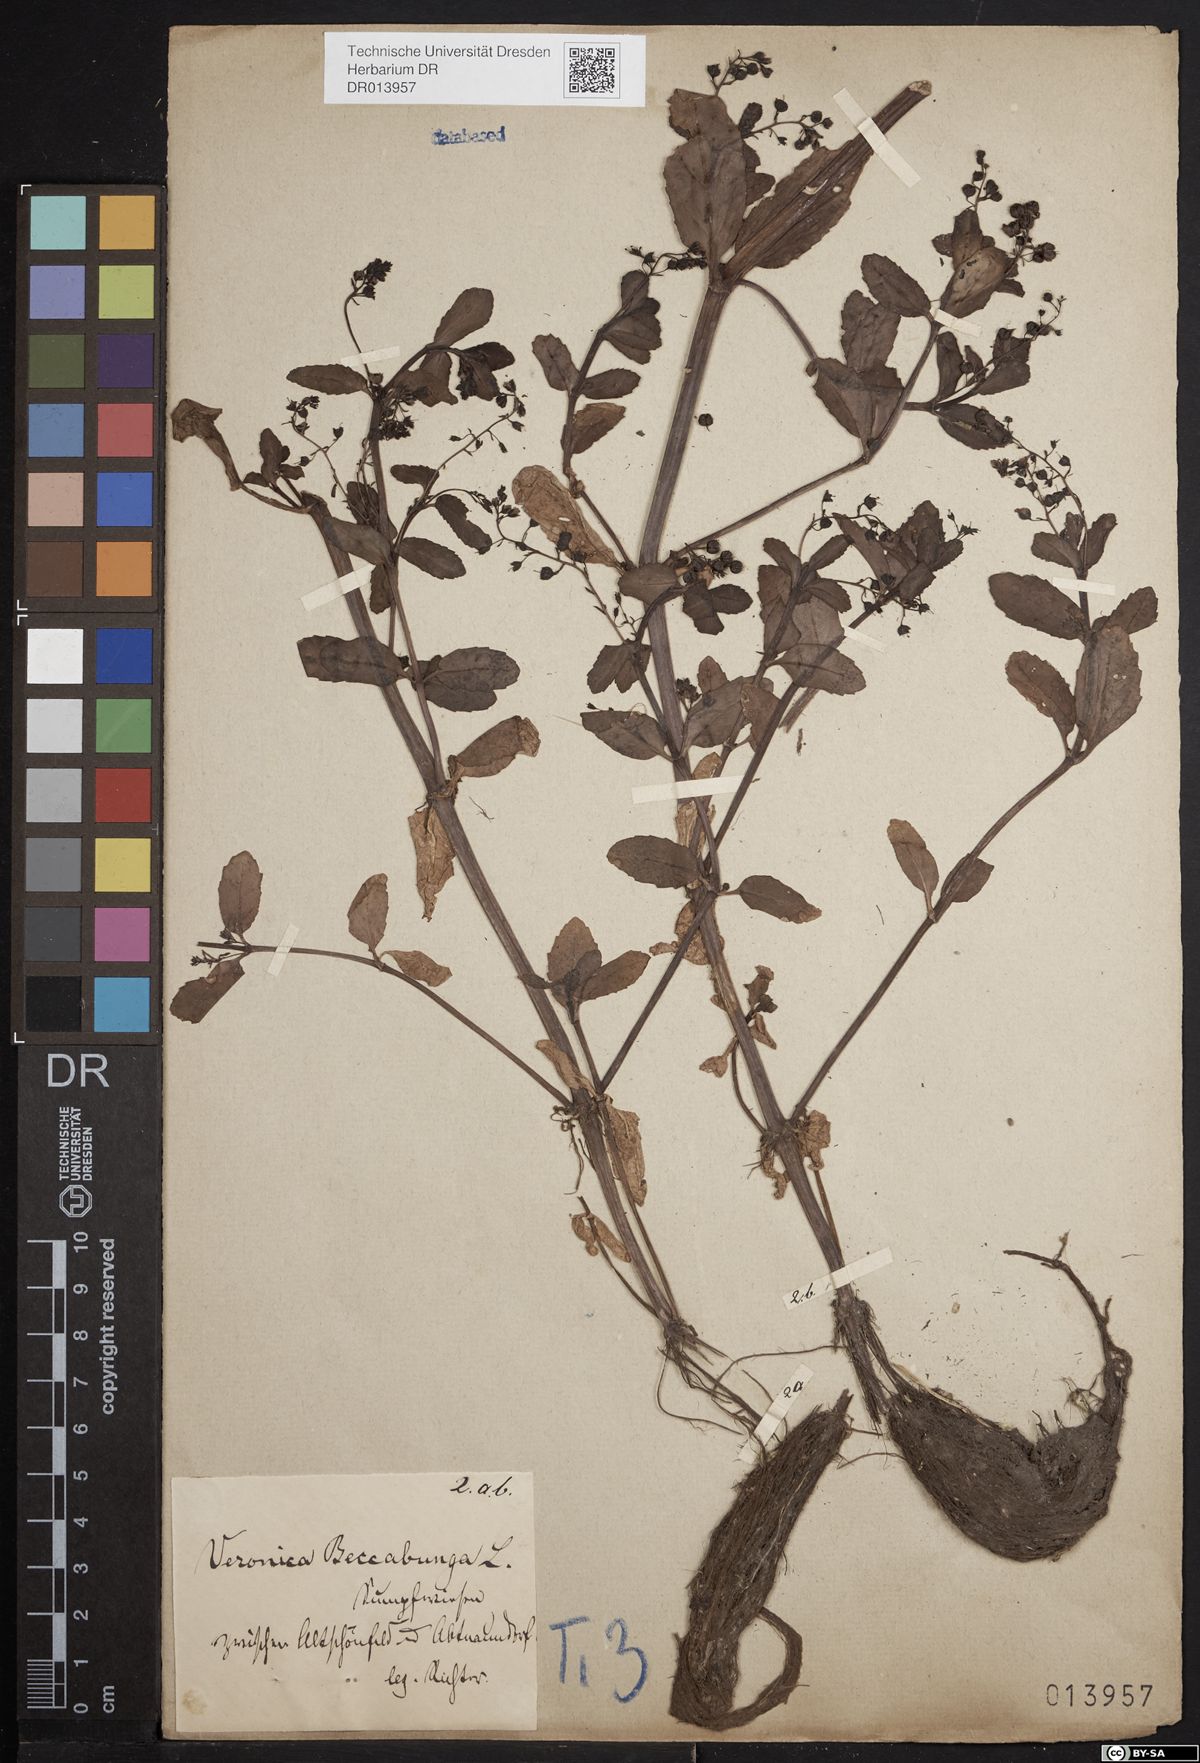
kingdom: Plantae
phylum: Tracheophyta
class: Magnoliopsida
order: Lamiales
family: Plantaginaceae
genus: Veronica
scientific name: Veronica beccabunga
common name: Brooklime
